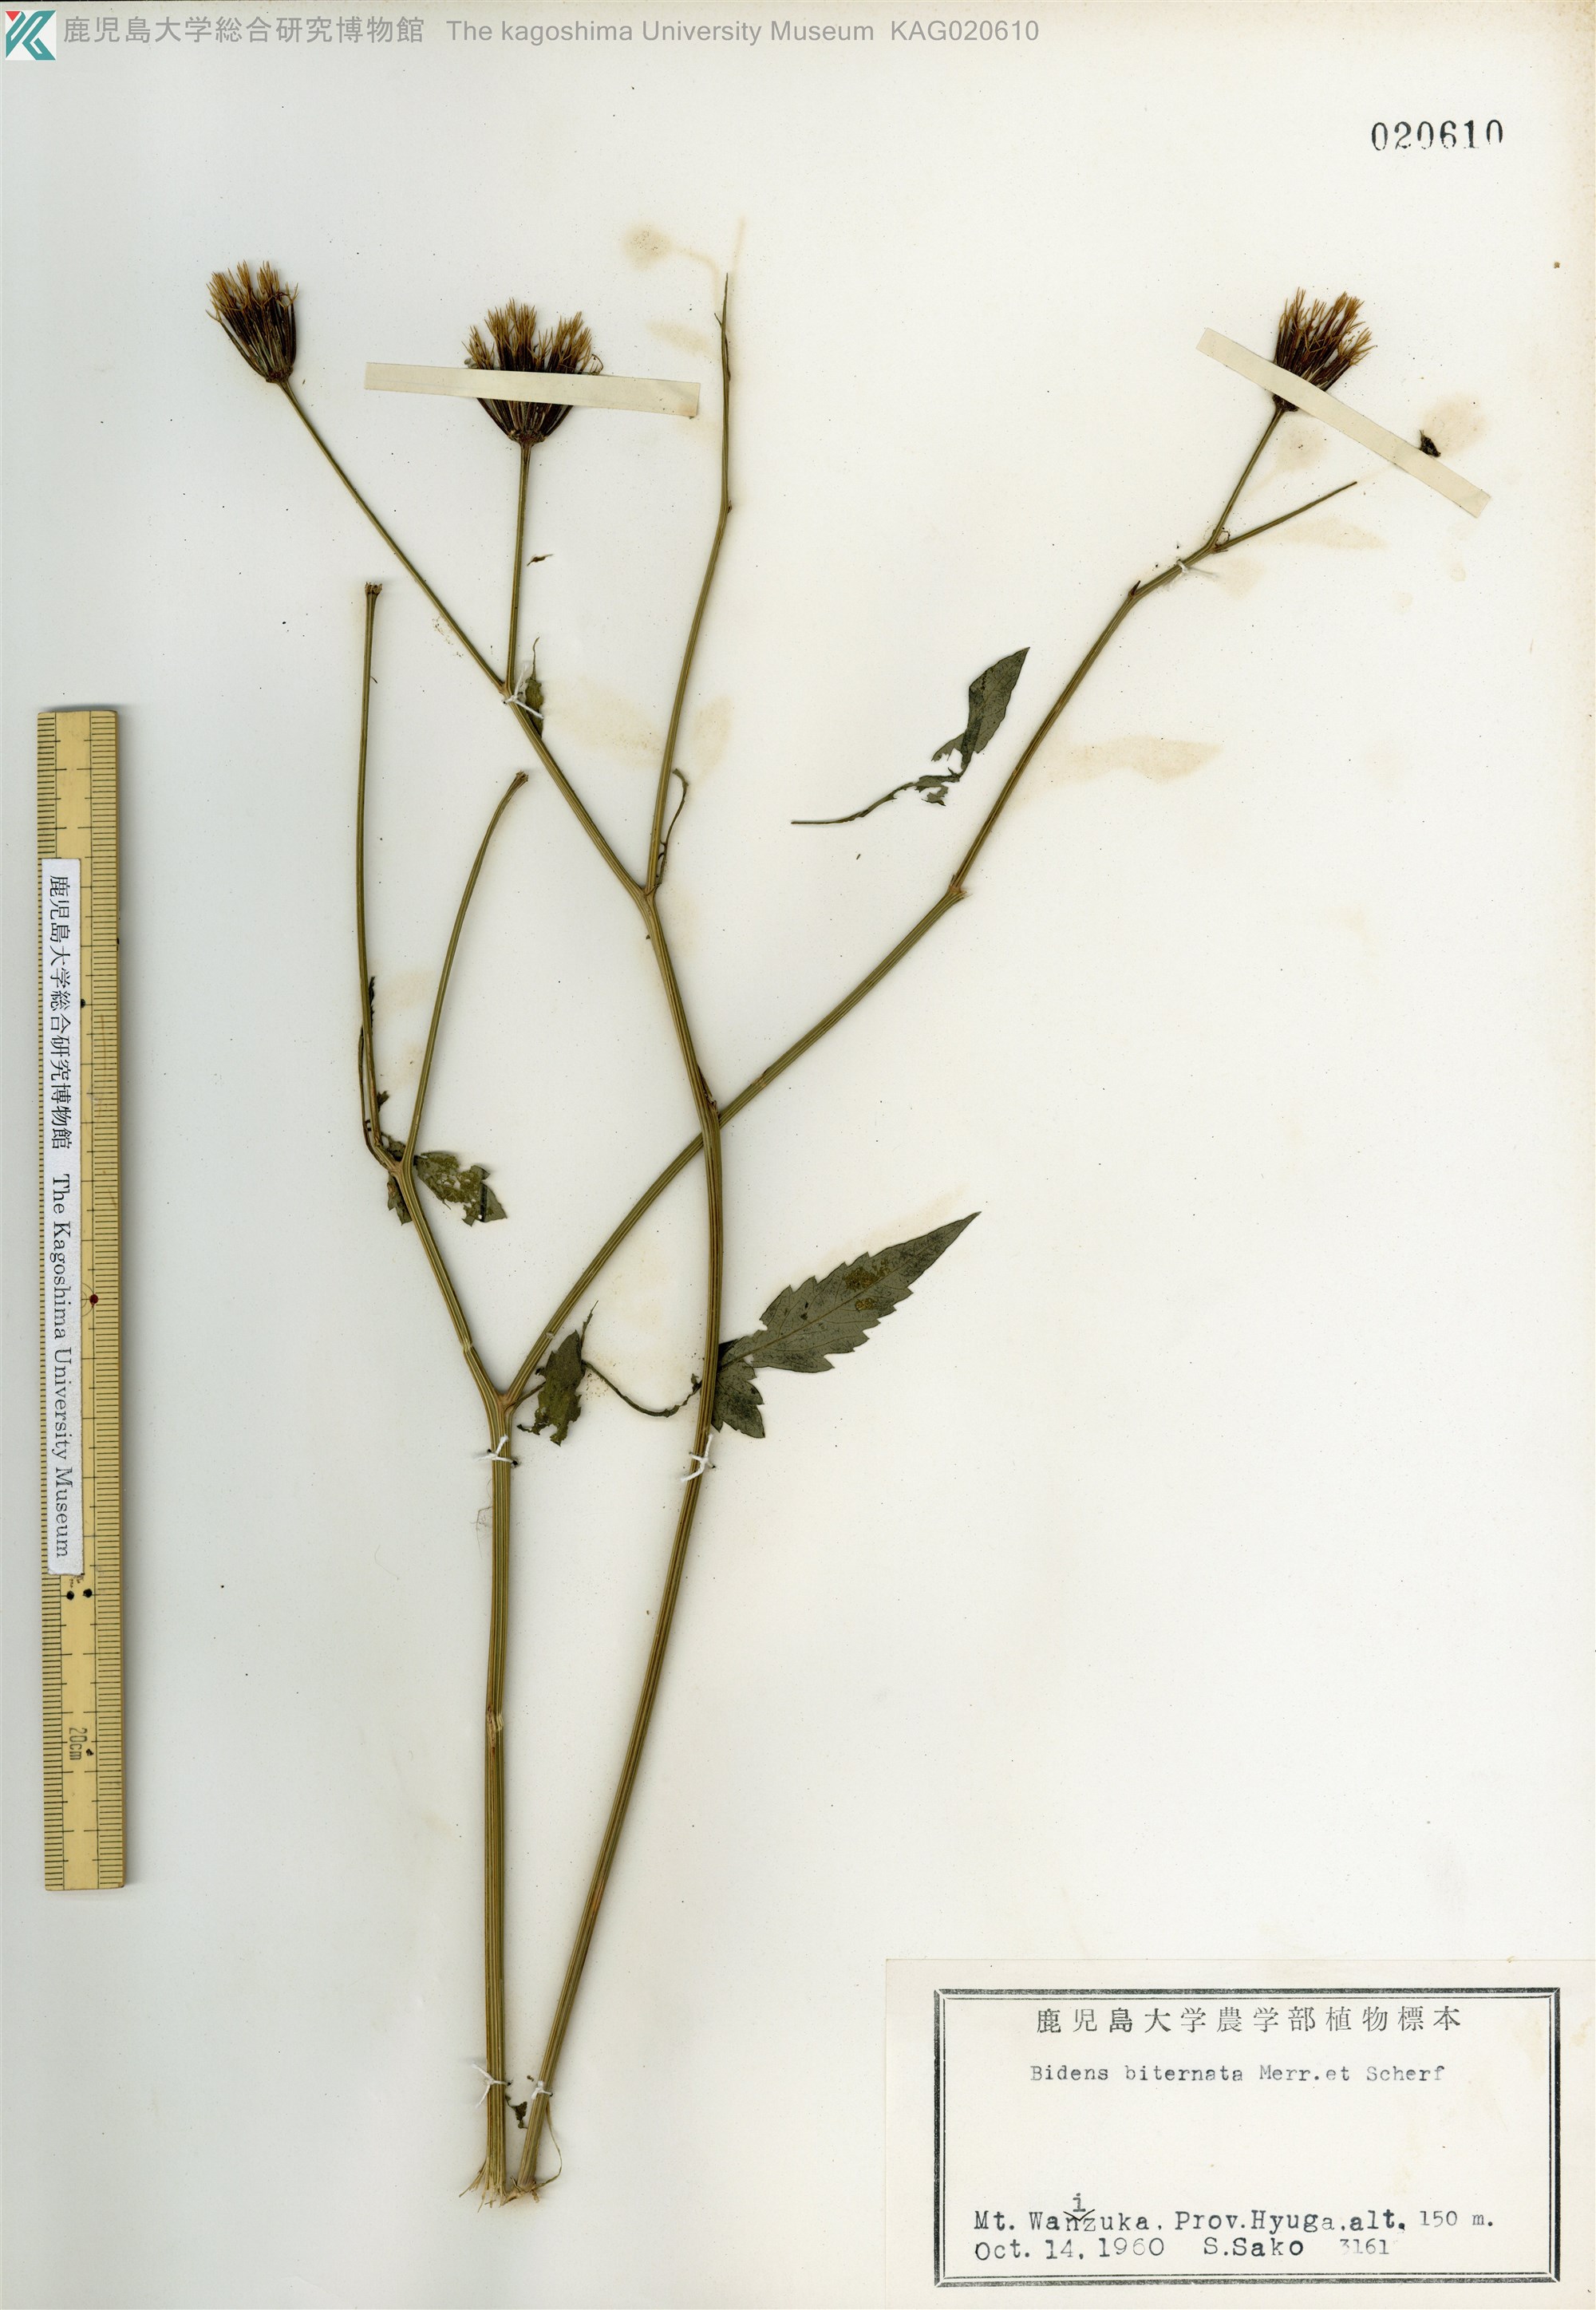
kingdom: Plantae
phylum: Tracheophyta
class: Magnoliopsida
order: Asterales
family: Asteraceae
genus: Bidens
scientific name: Bidens biternata
